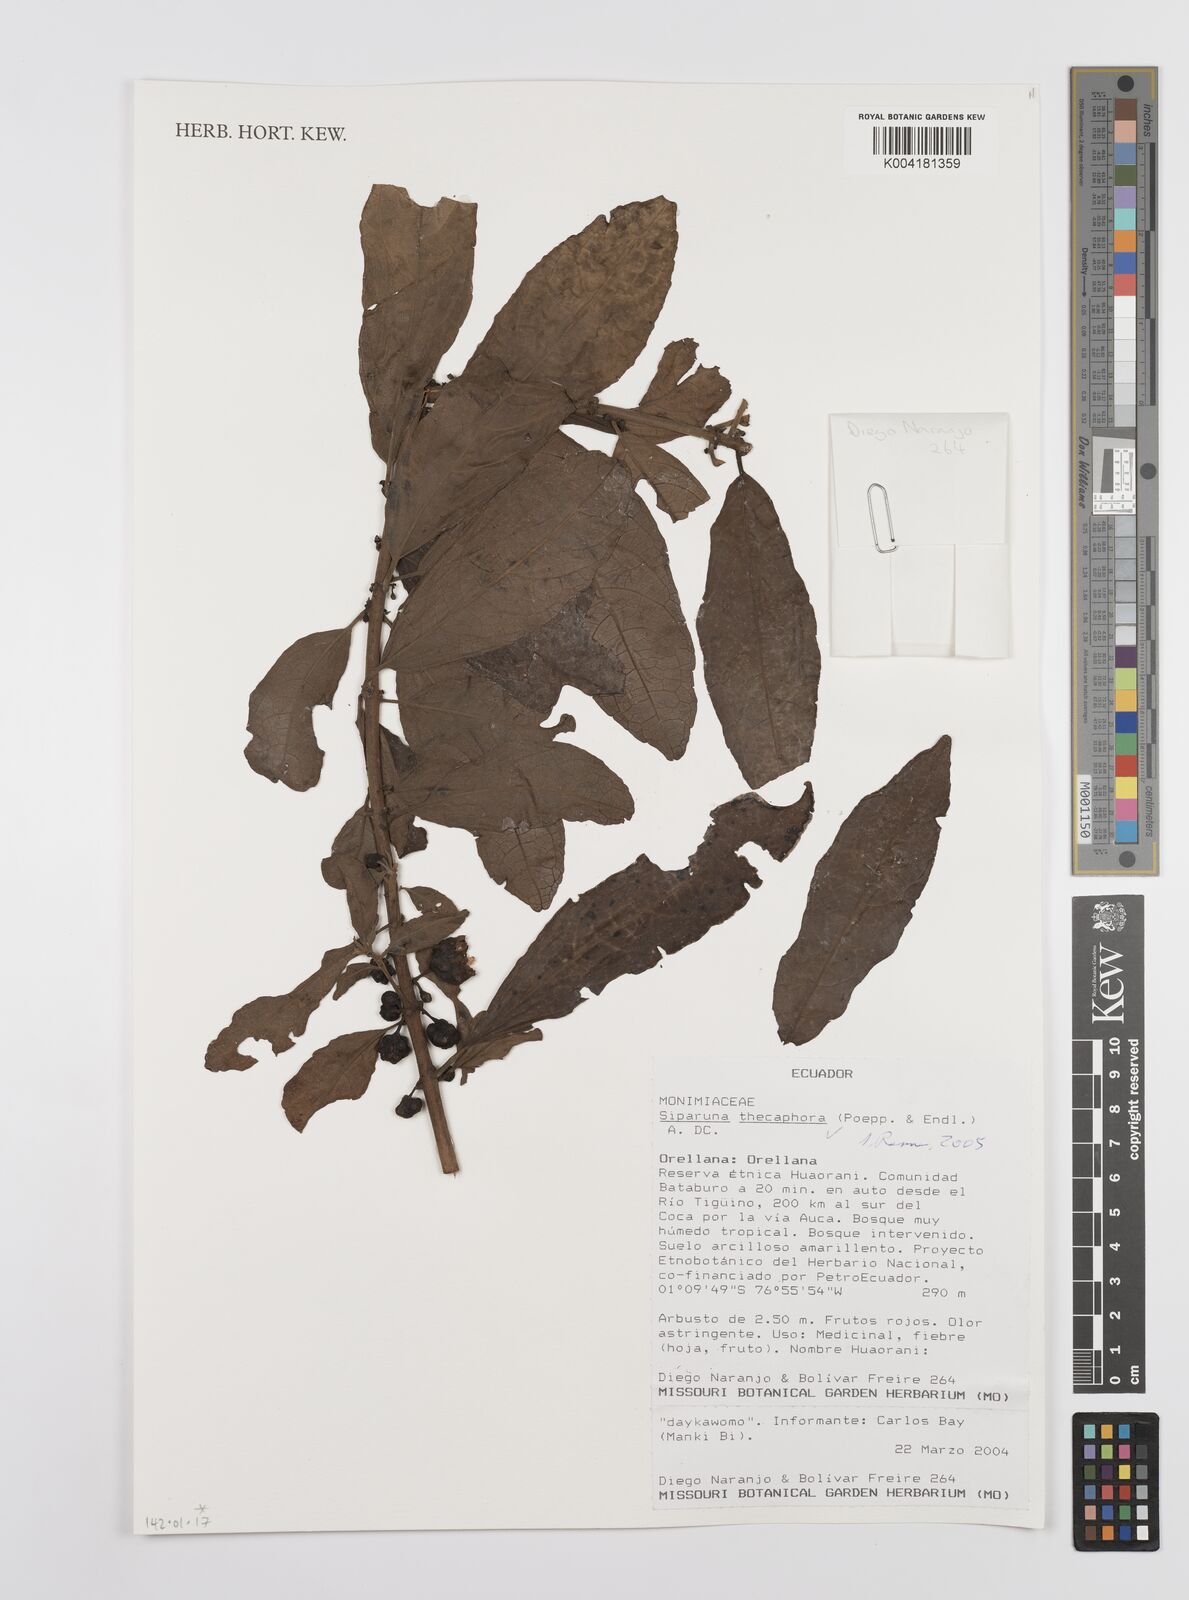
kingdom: Plantae
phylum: Tracheophyta
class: Magnoliopsida
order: Laurales
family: Siparunaceae
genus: Siparuna
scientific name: Siparuna thecaphora
